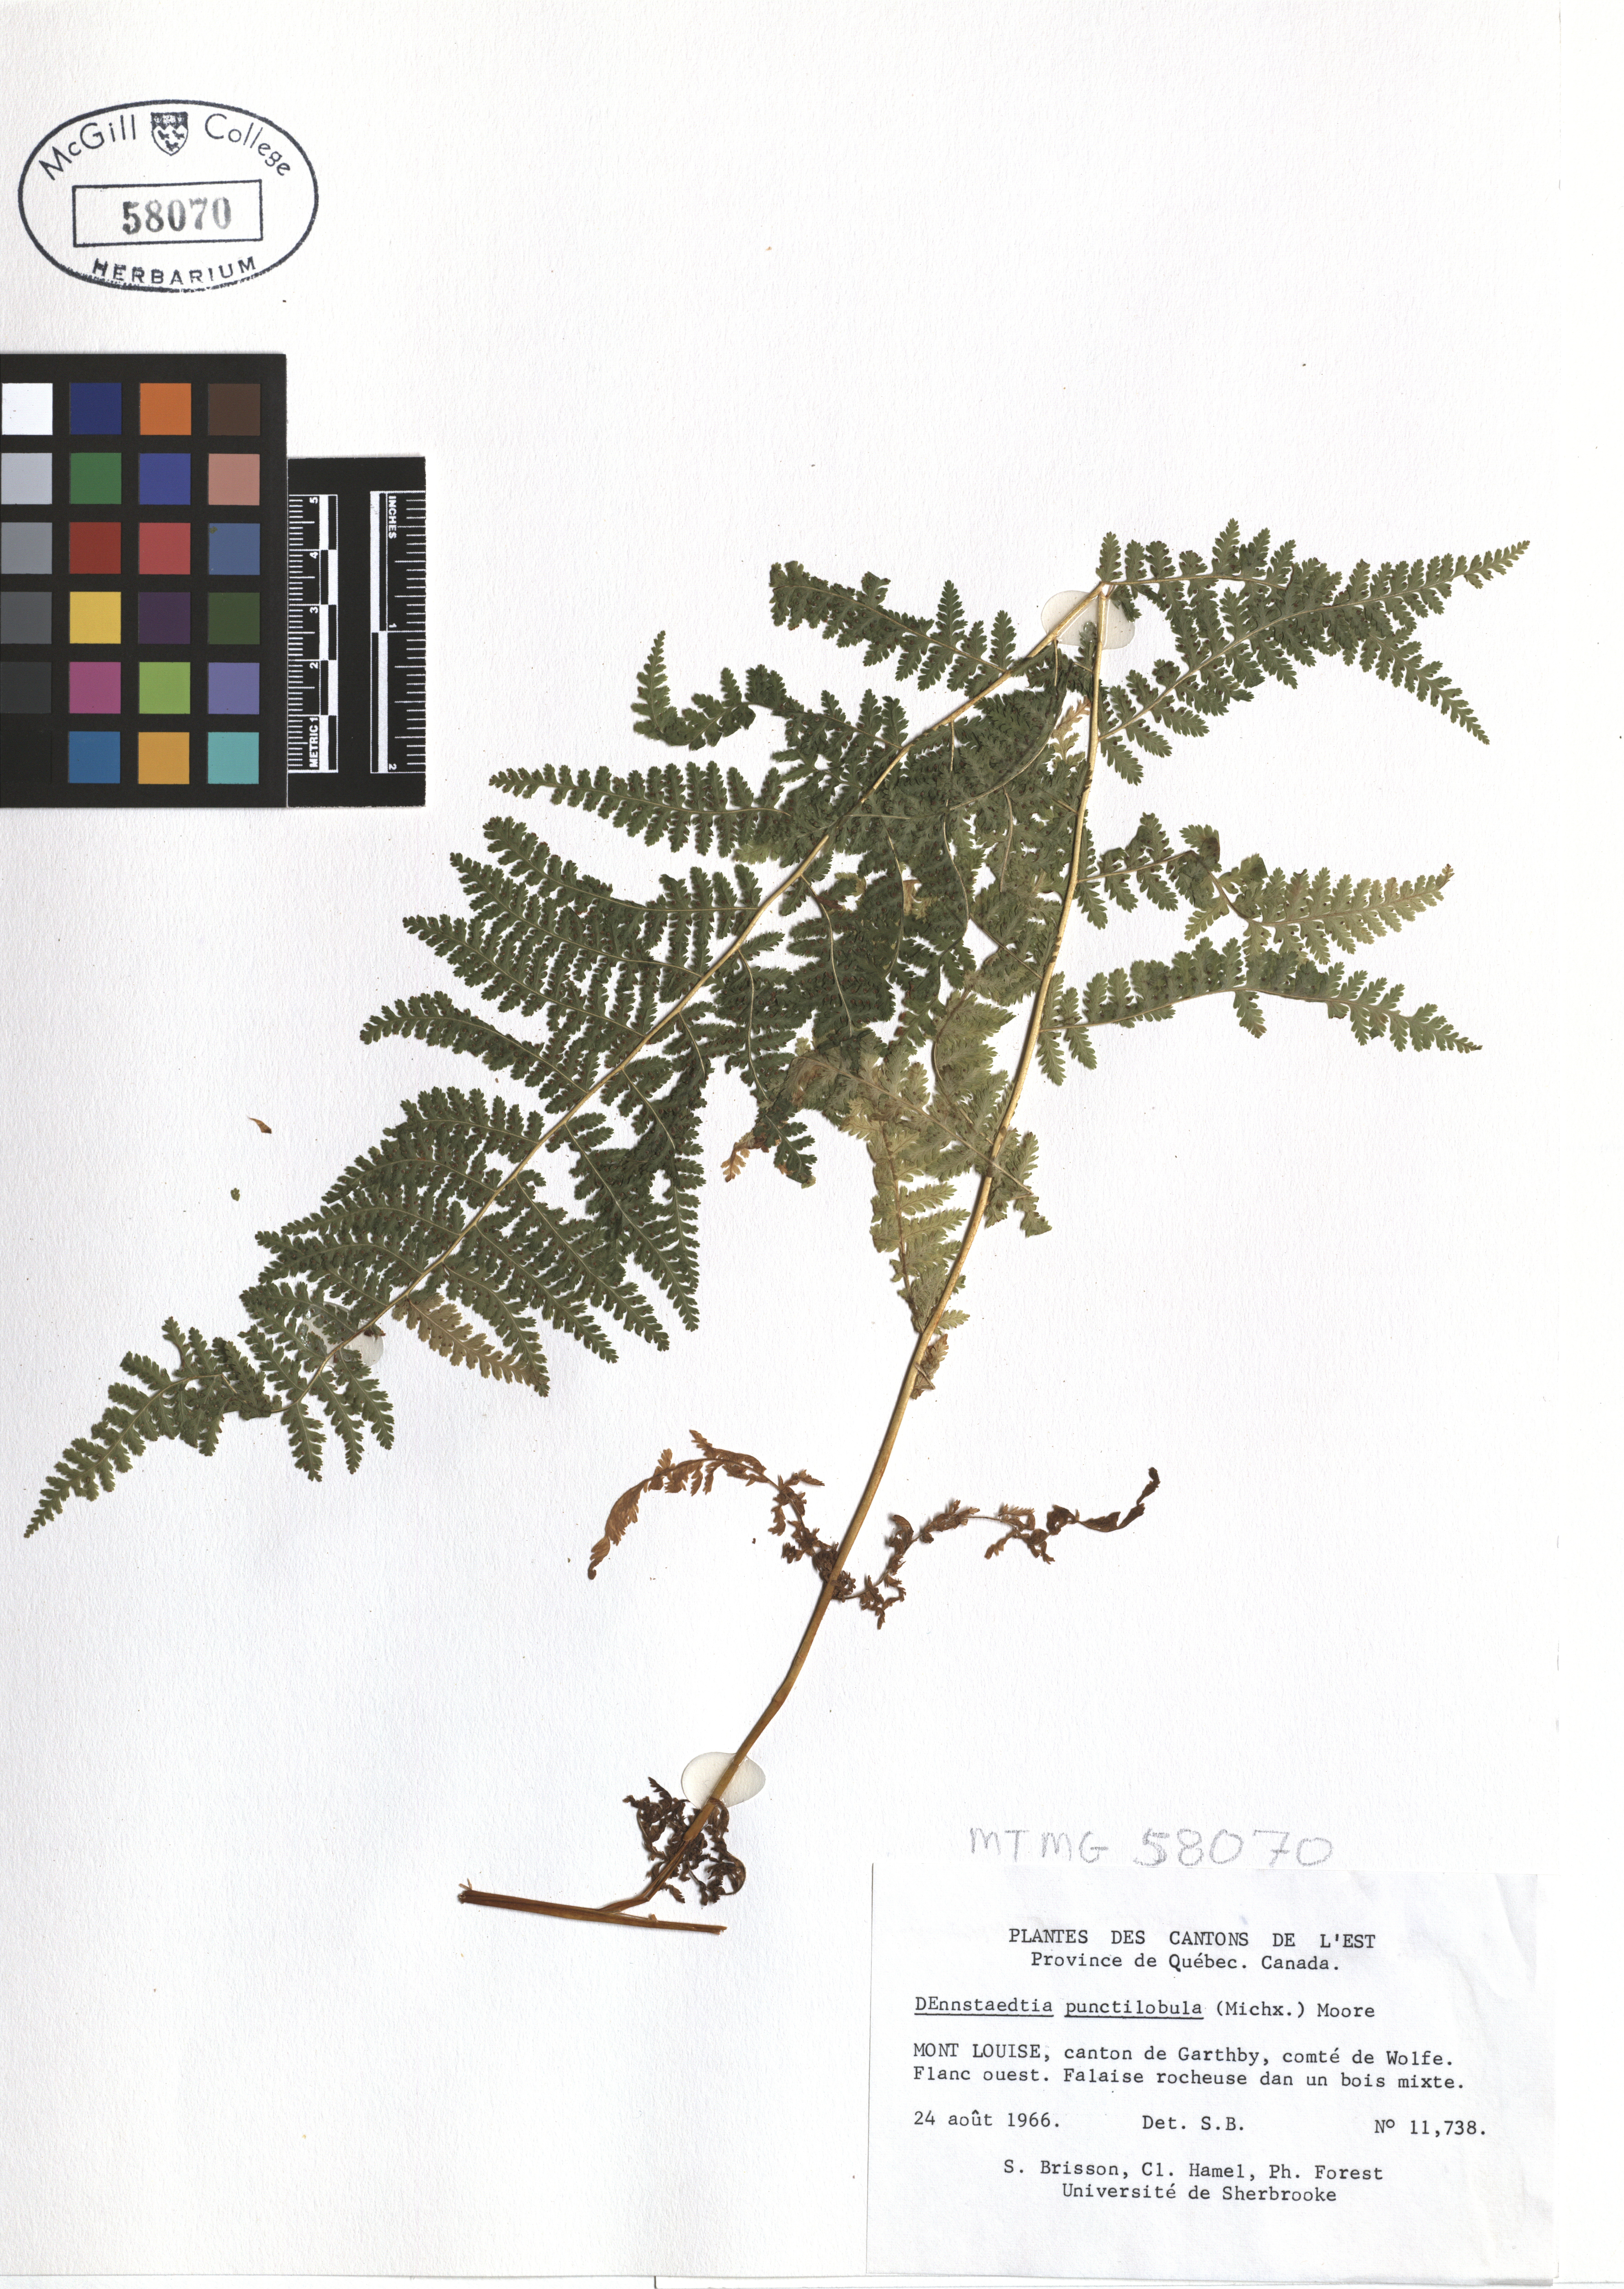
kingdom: Plantae
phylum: Tracheophyta
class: Polypodiopsida
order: Polypodiales
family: Dennstaedtiaceae
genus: Sitobolium
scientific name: Sitobolium punctilobum
